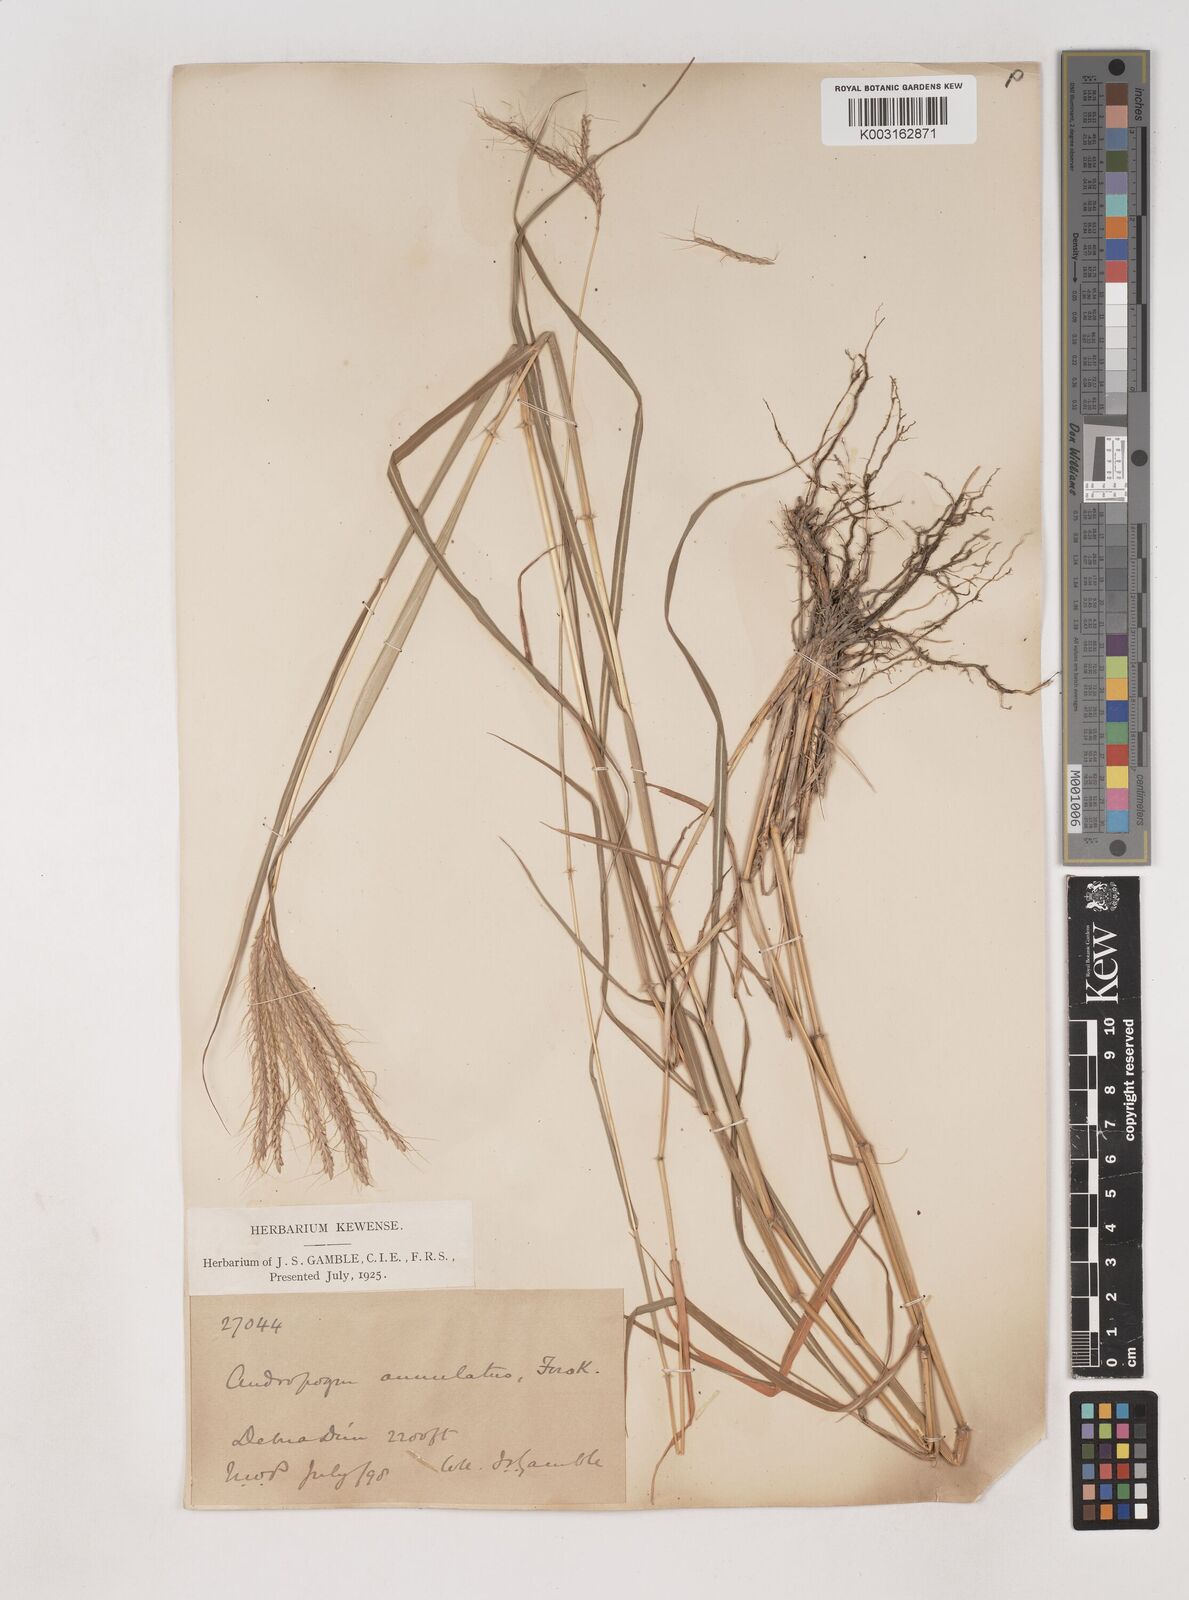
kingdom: Plantae
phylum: Tracheophyta
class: Liliopsida
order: Poales
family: Poaceae
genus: Dichanthium
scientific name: Dichanthium annulatum
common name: Kleberg's bluestem
